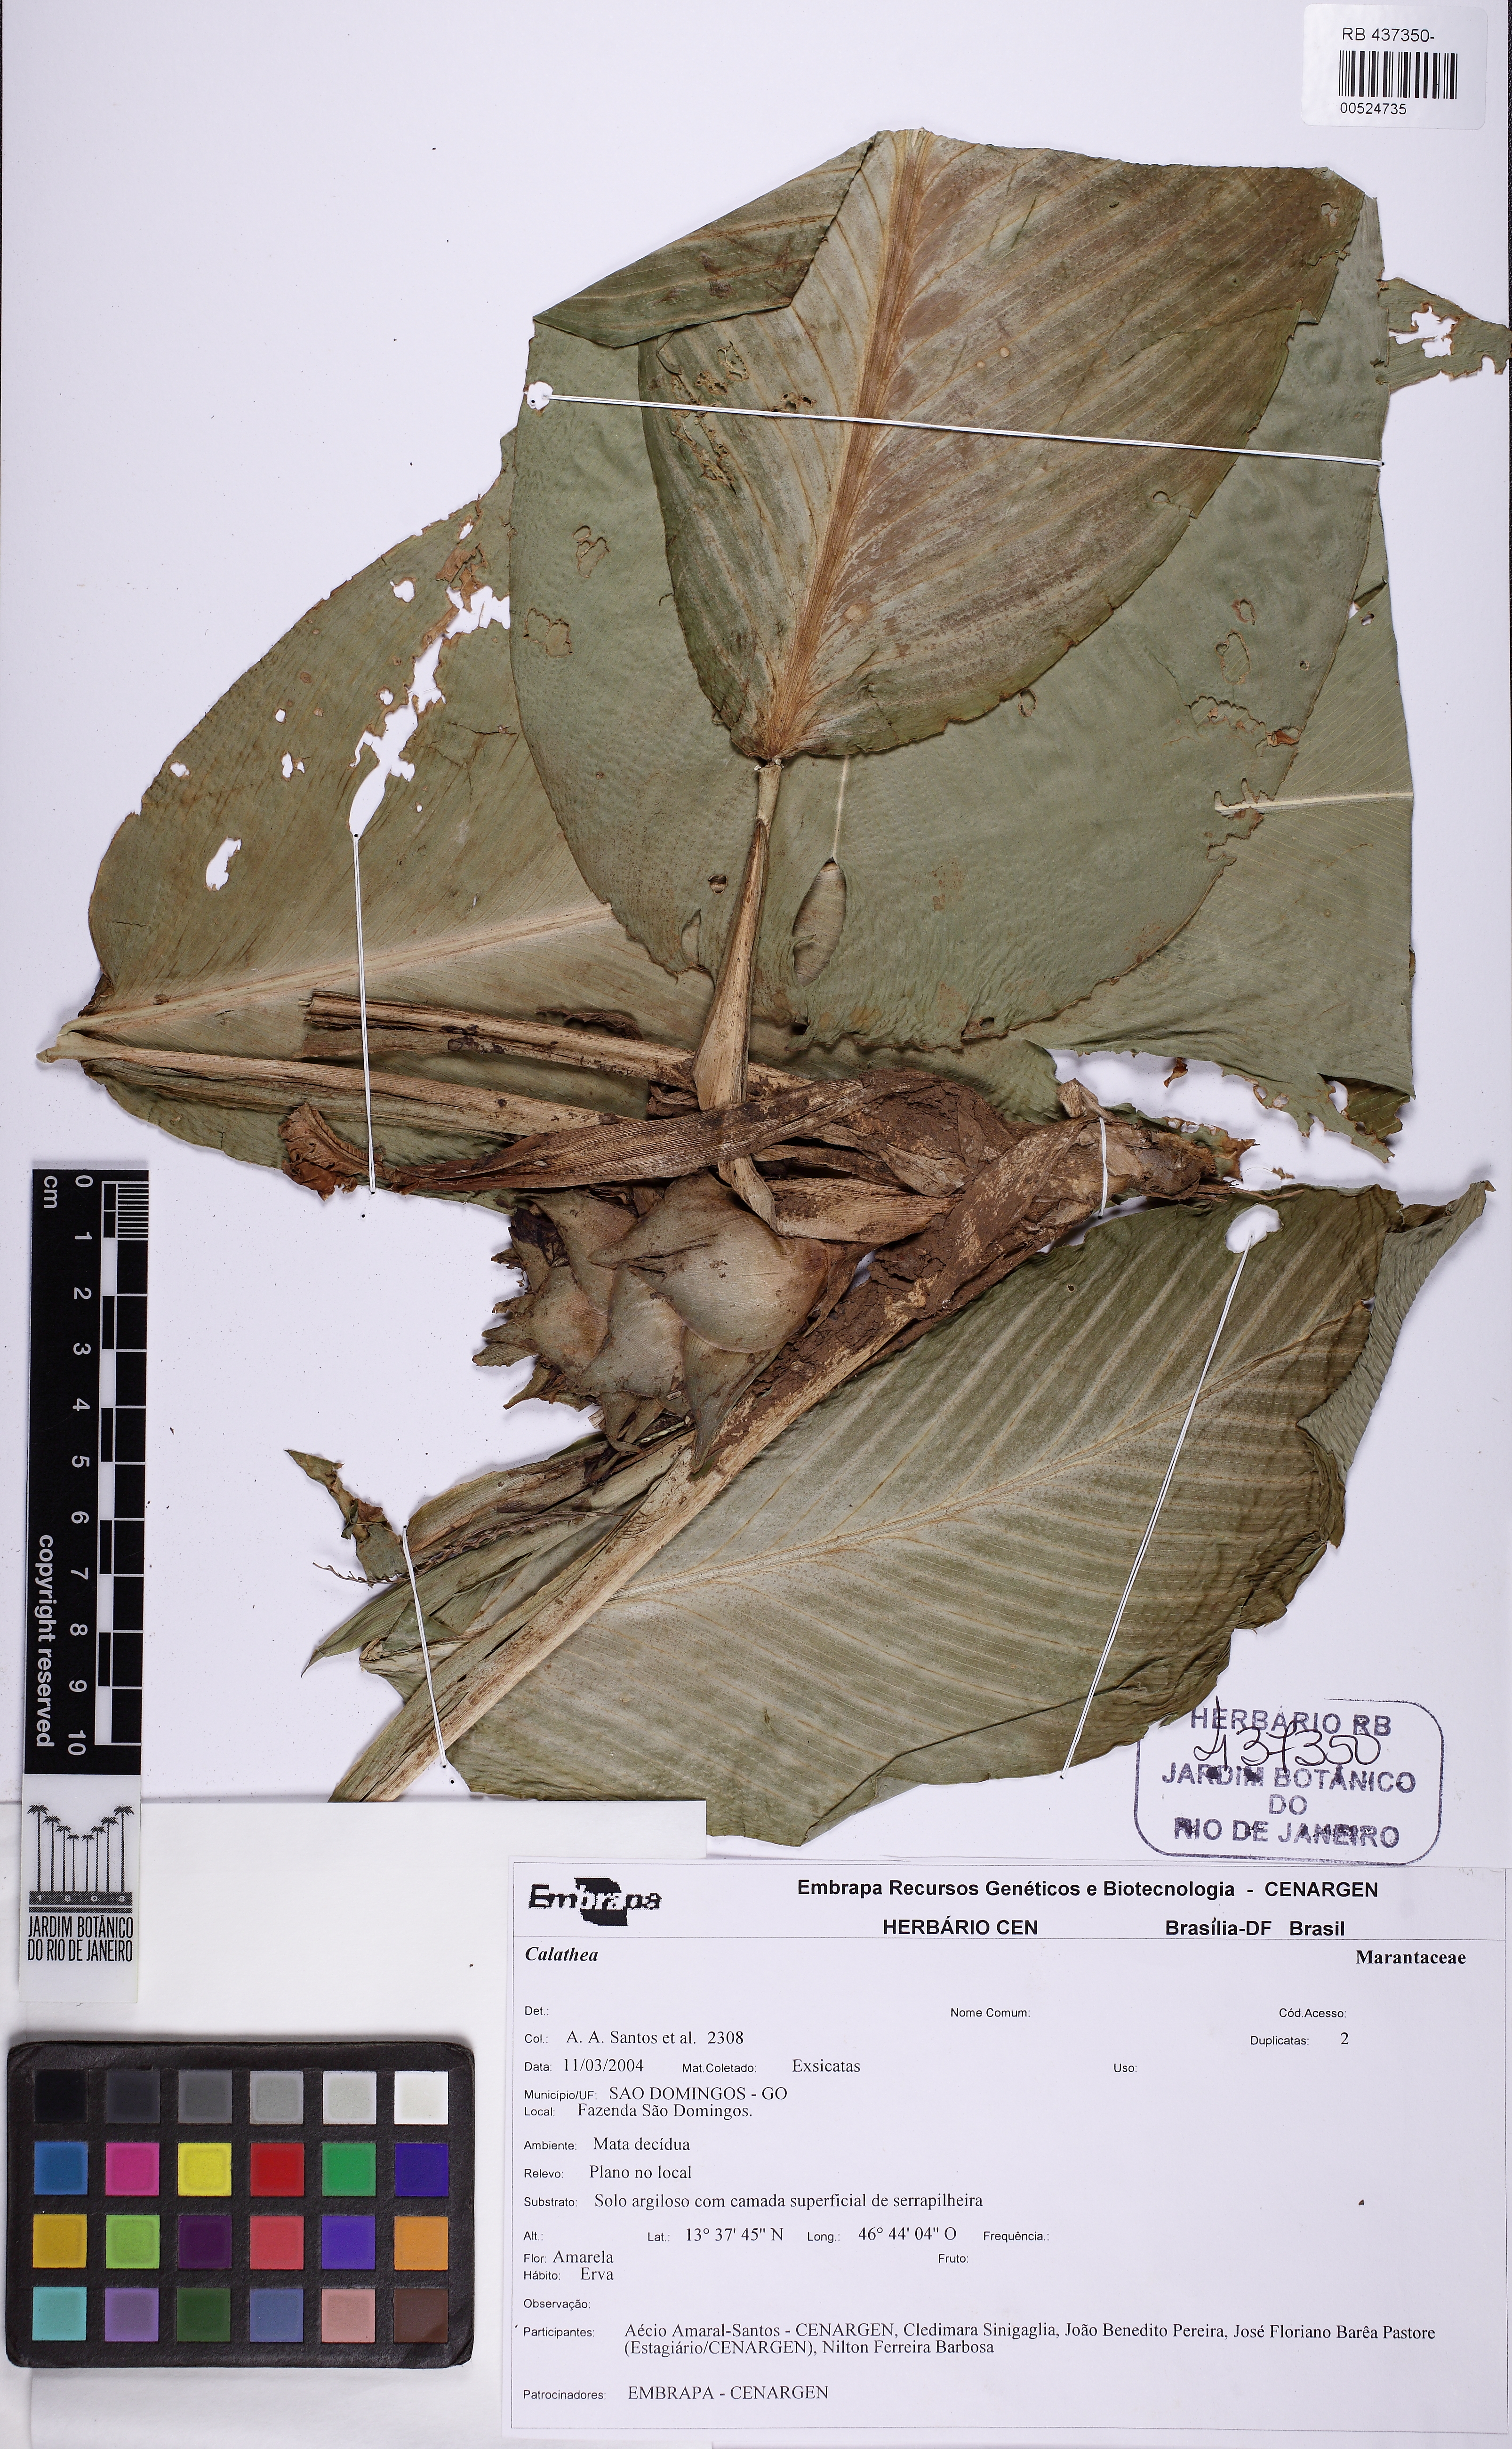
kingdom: Plantae
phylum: Tracheophyta
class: Liliopsida
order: Zingiberales
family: Marantaceae
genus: Calathea
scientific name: Calathea
